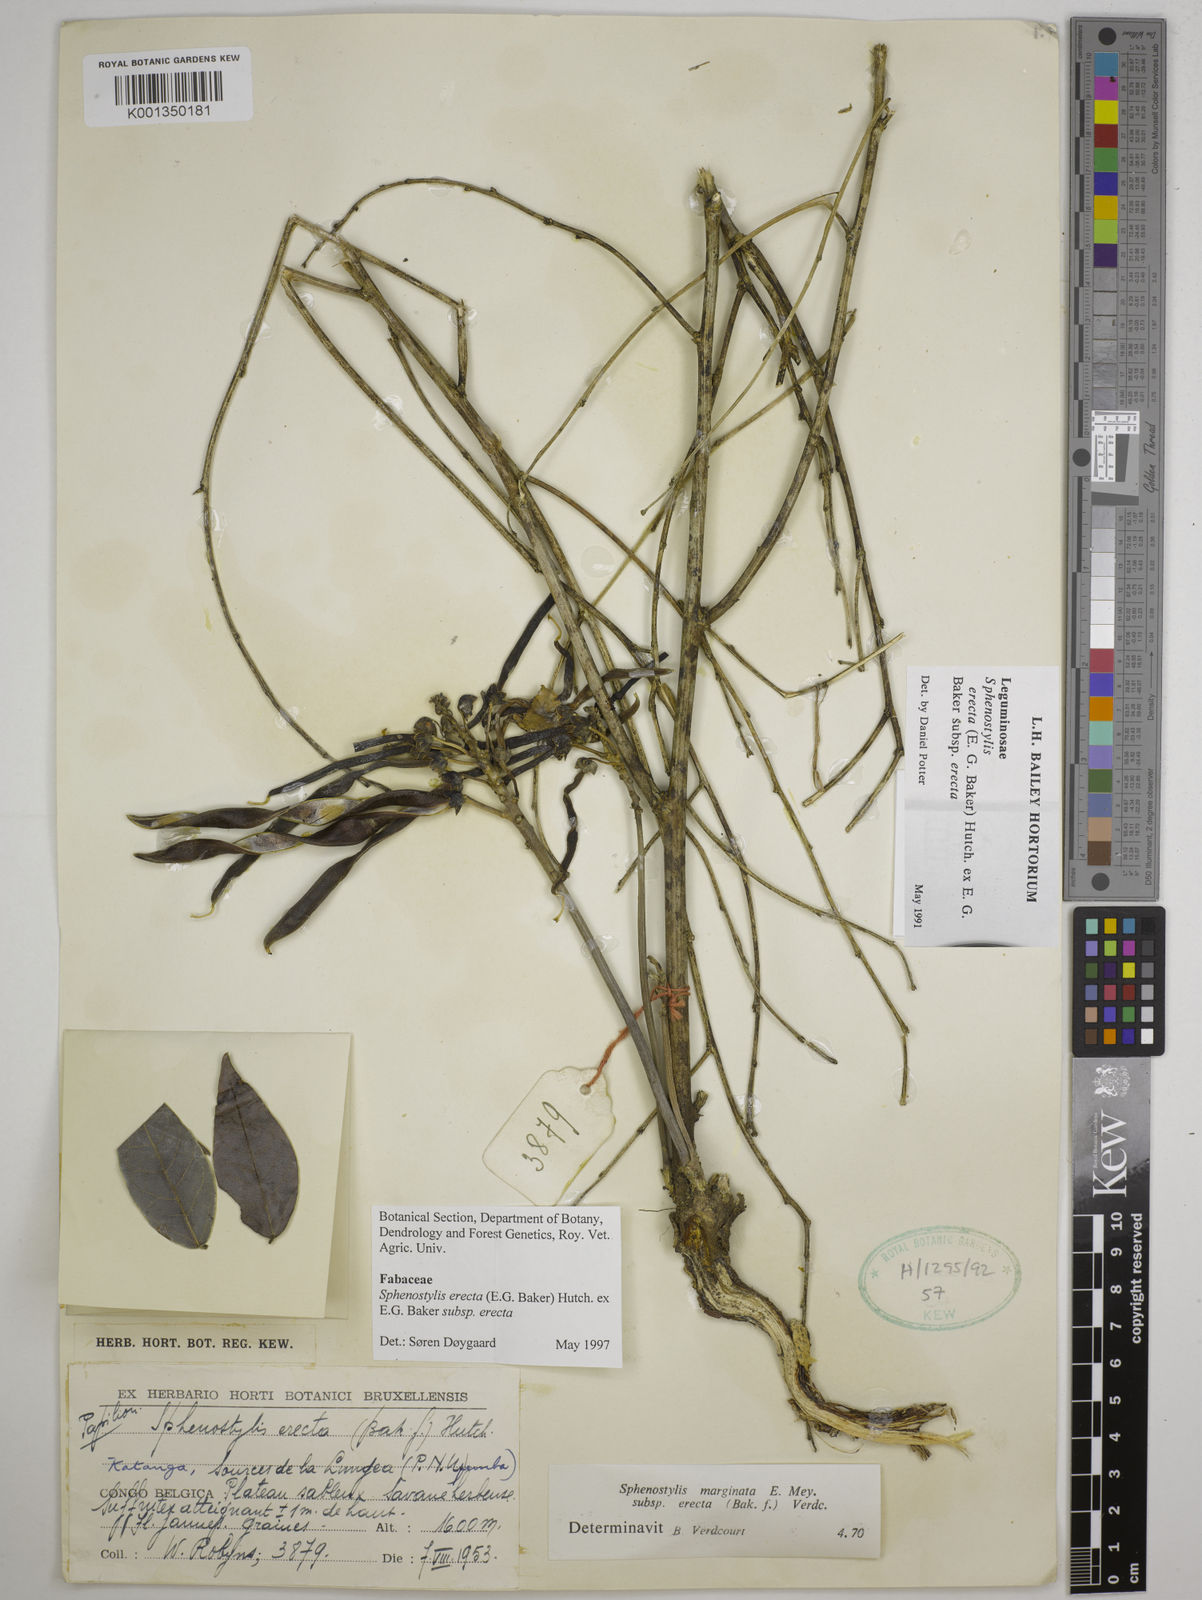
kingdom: Plantae
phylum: Tracheophyta
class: Magnoliopsida
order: Fabales
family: Fabaceae
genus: Sphenostylis
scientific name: Sphenostylis erecta
